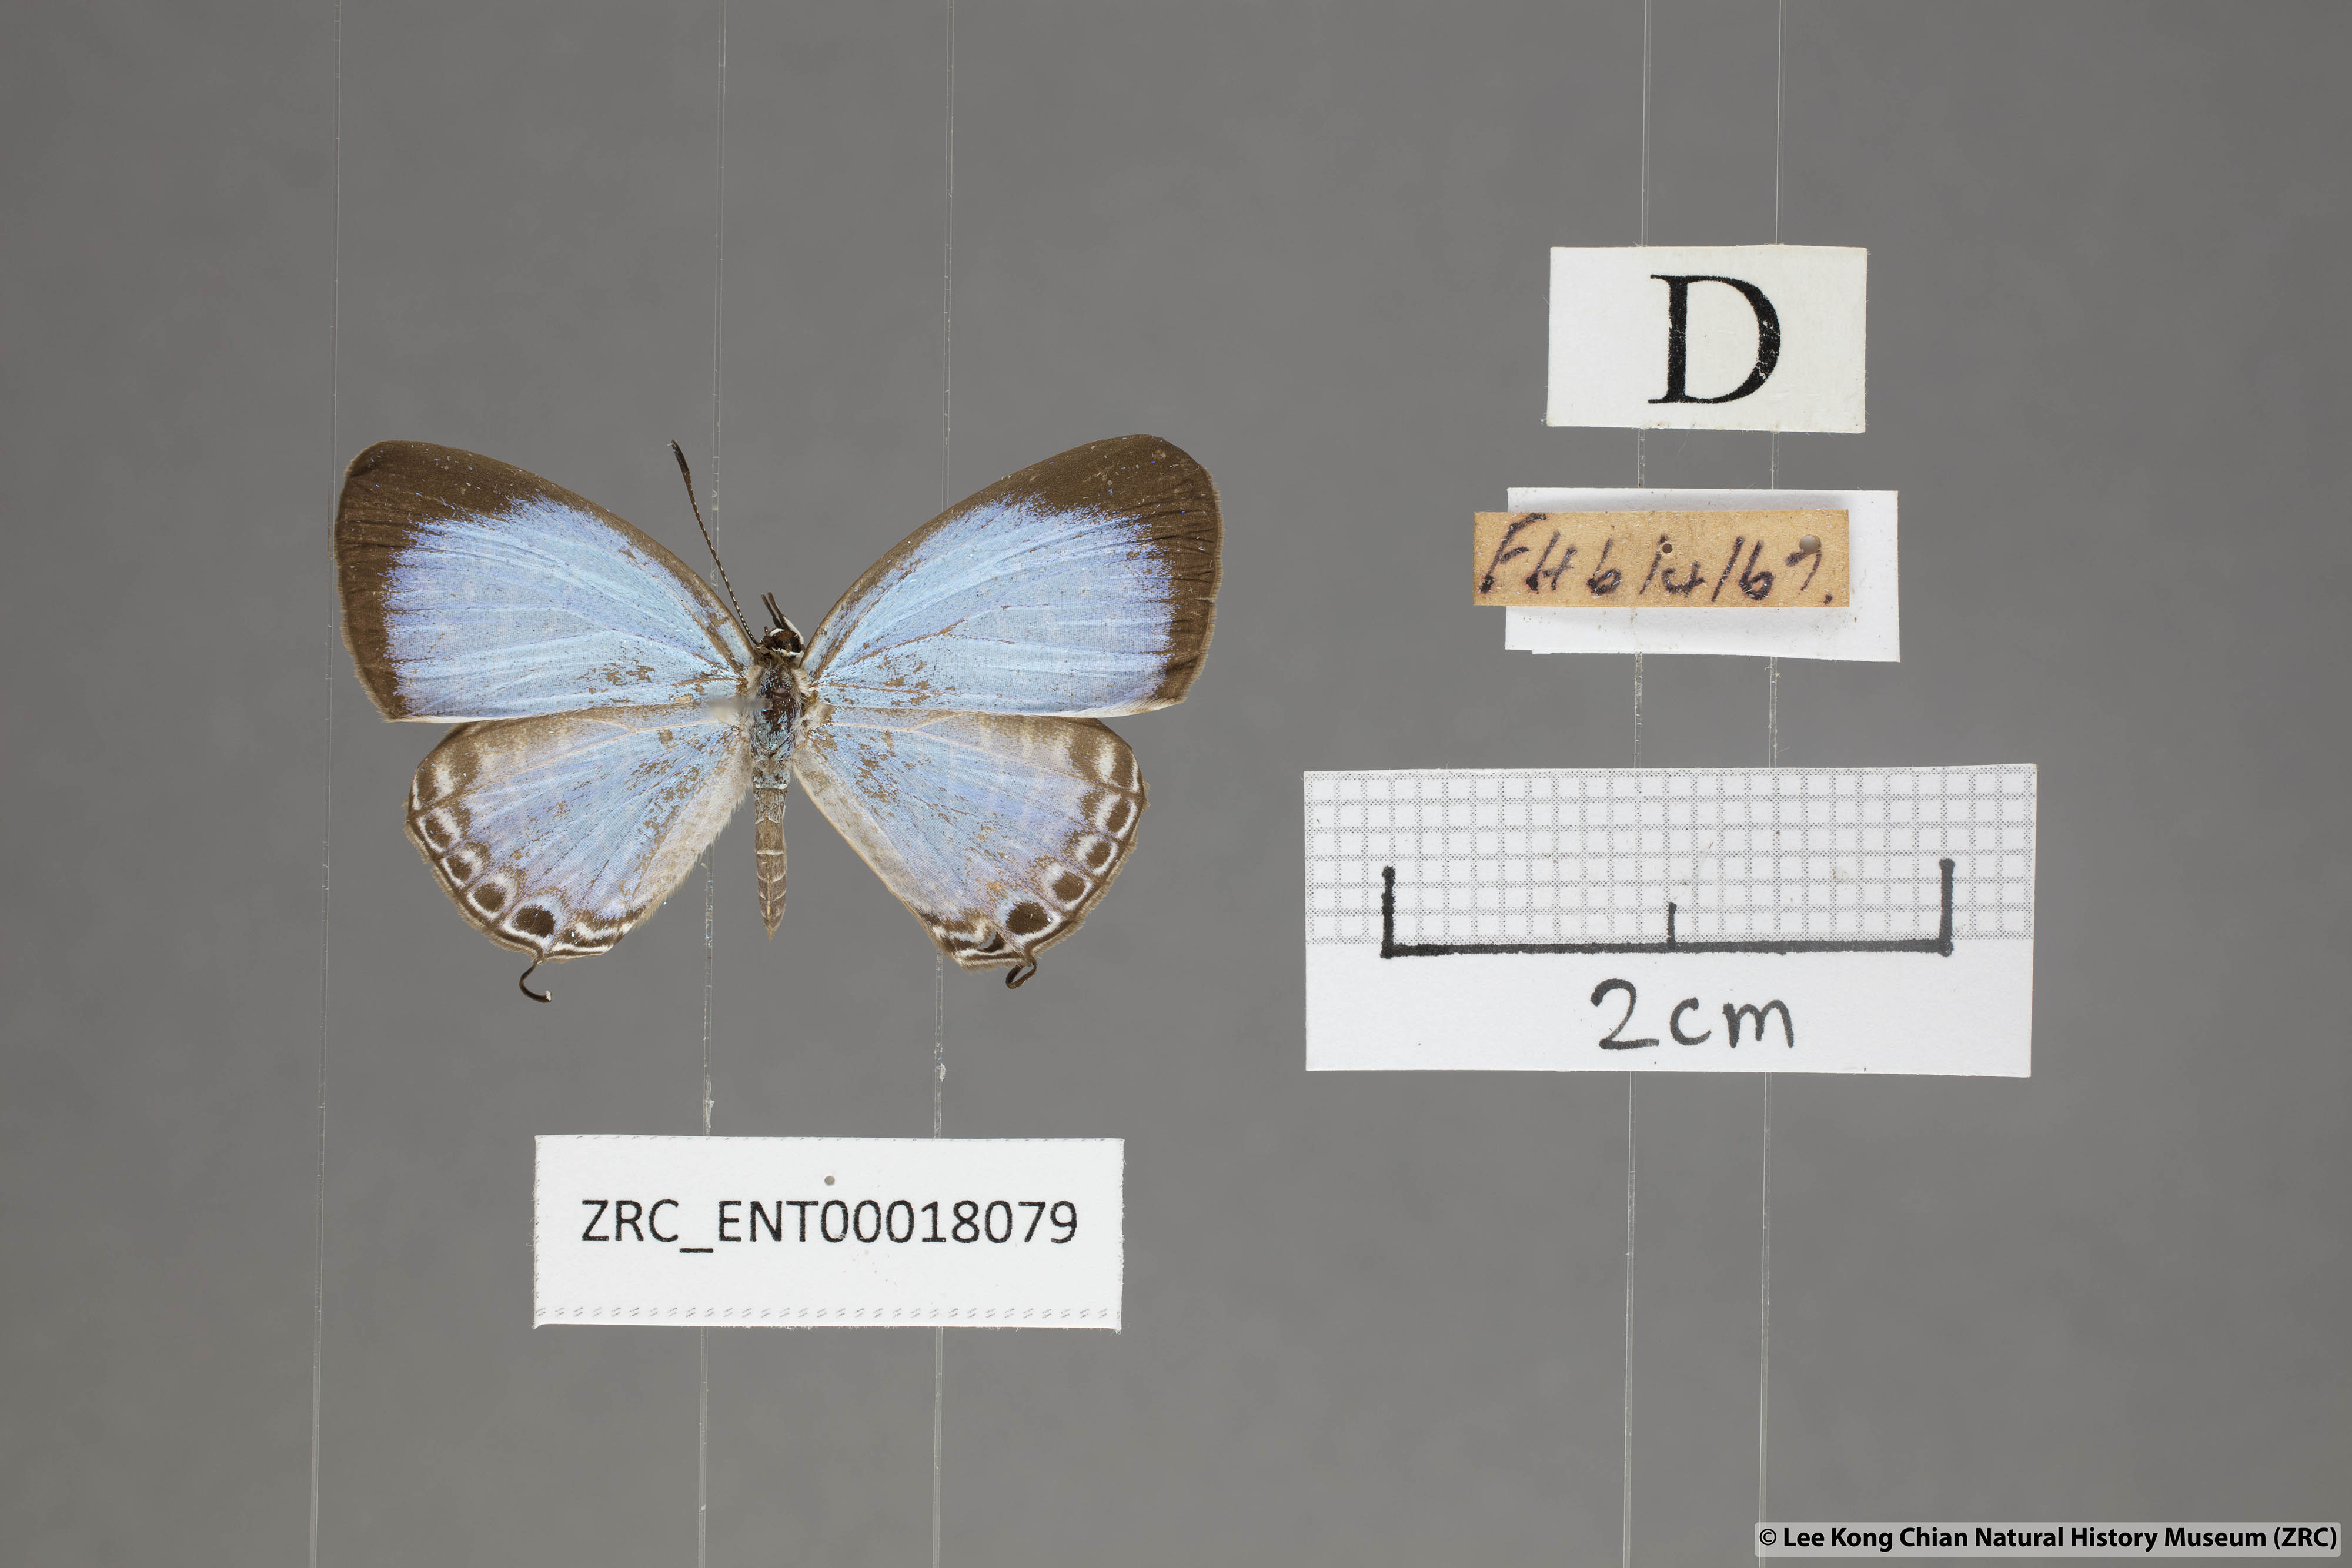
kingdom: Animalia
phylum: Arthropoda
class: Insecta
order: Lepidoptera
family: Lycaenidae
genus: Jamides
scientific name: Jamides caerulea
